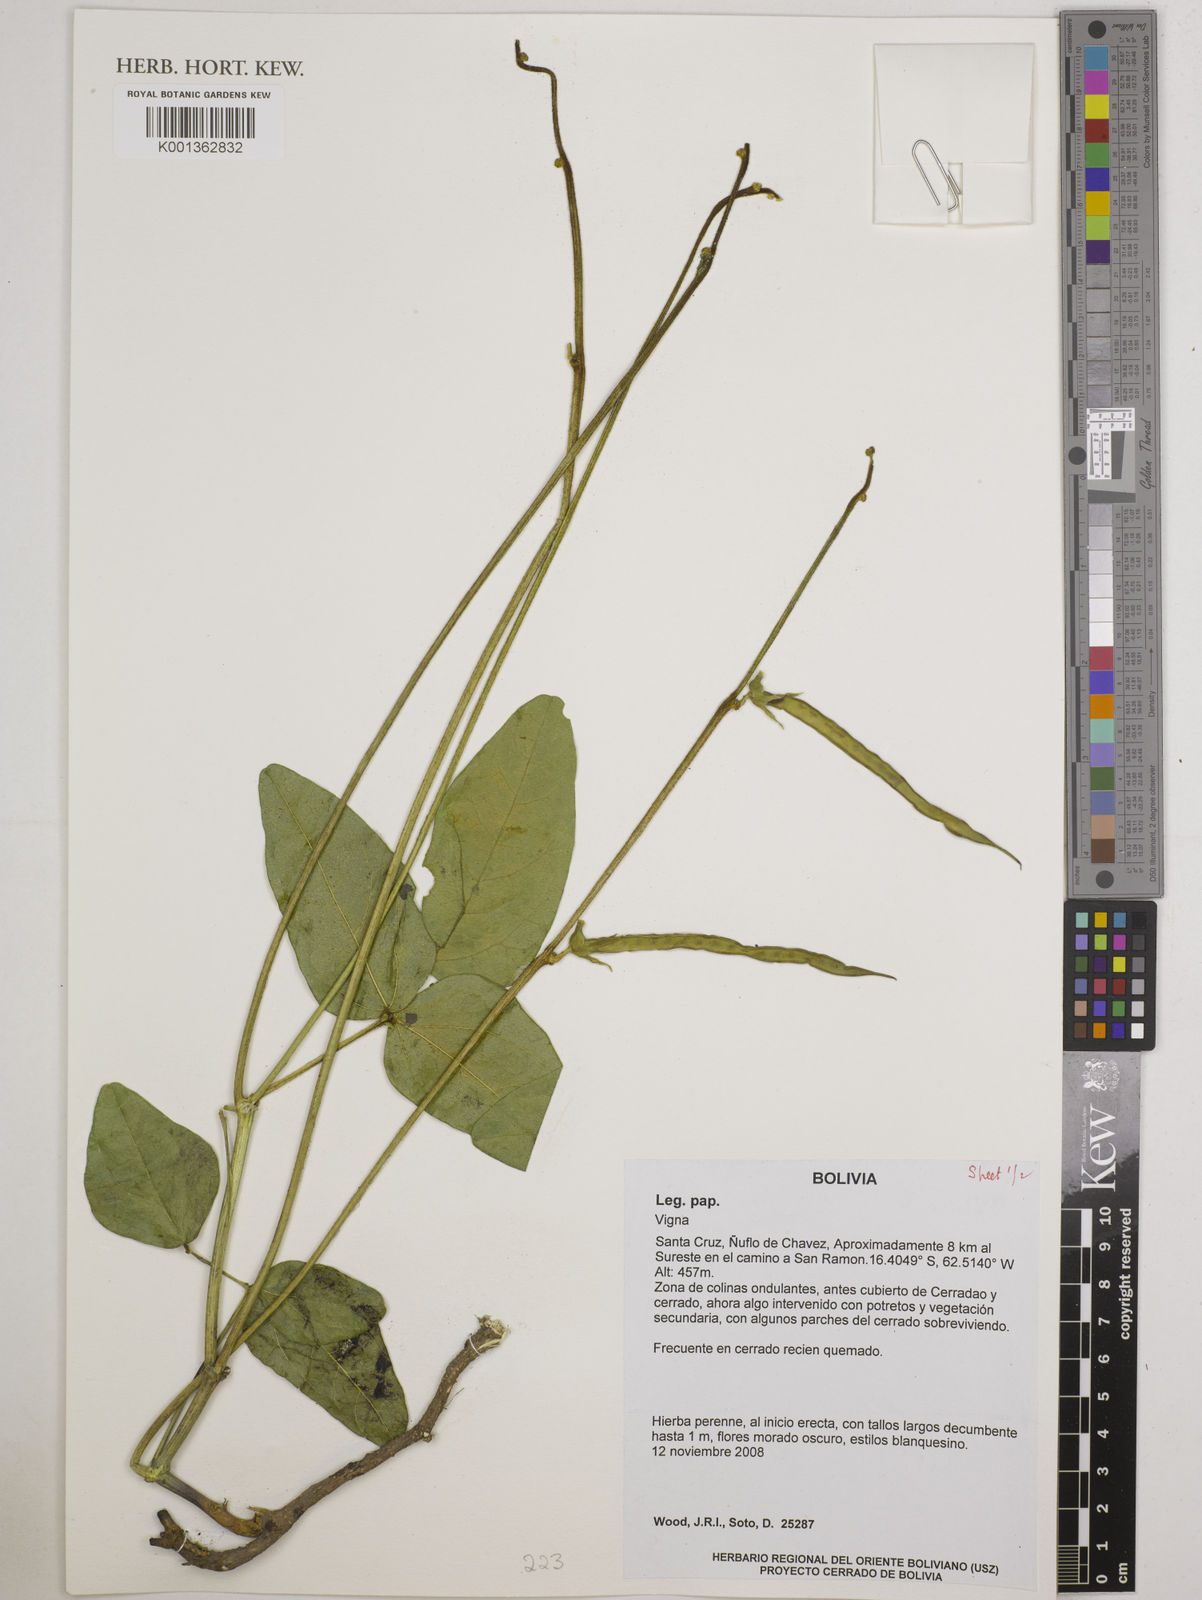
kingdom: Plantae
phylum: Tracheophyta
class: Magnoliopsida
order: Fabales
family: Fabaceae
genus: Vigna
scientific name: Vigna
